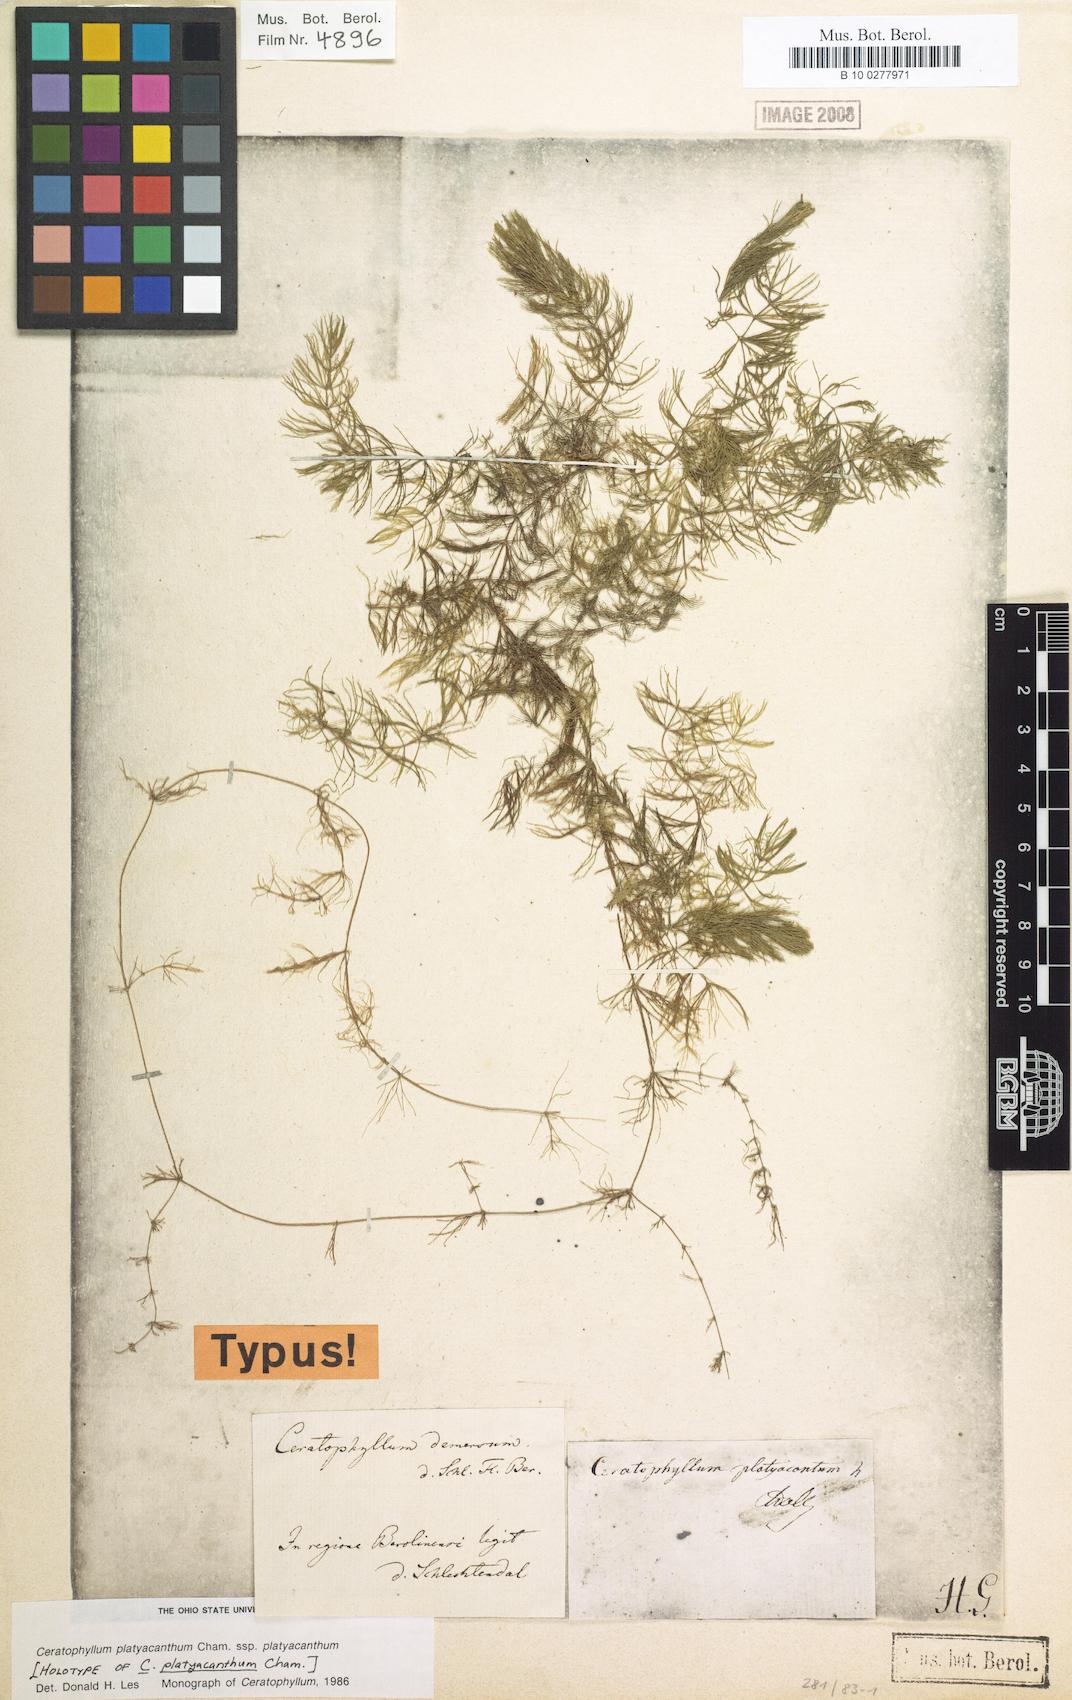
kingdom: Plantae
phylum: Tracheophyta
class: Magnoliopsida
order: Ceratophyllales
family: Ceratophyllaceae
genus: Ceratophyllum
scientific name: Ceratophyllum platyacanthum
